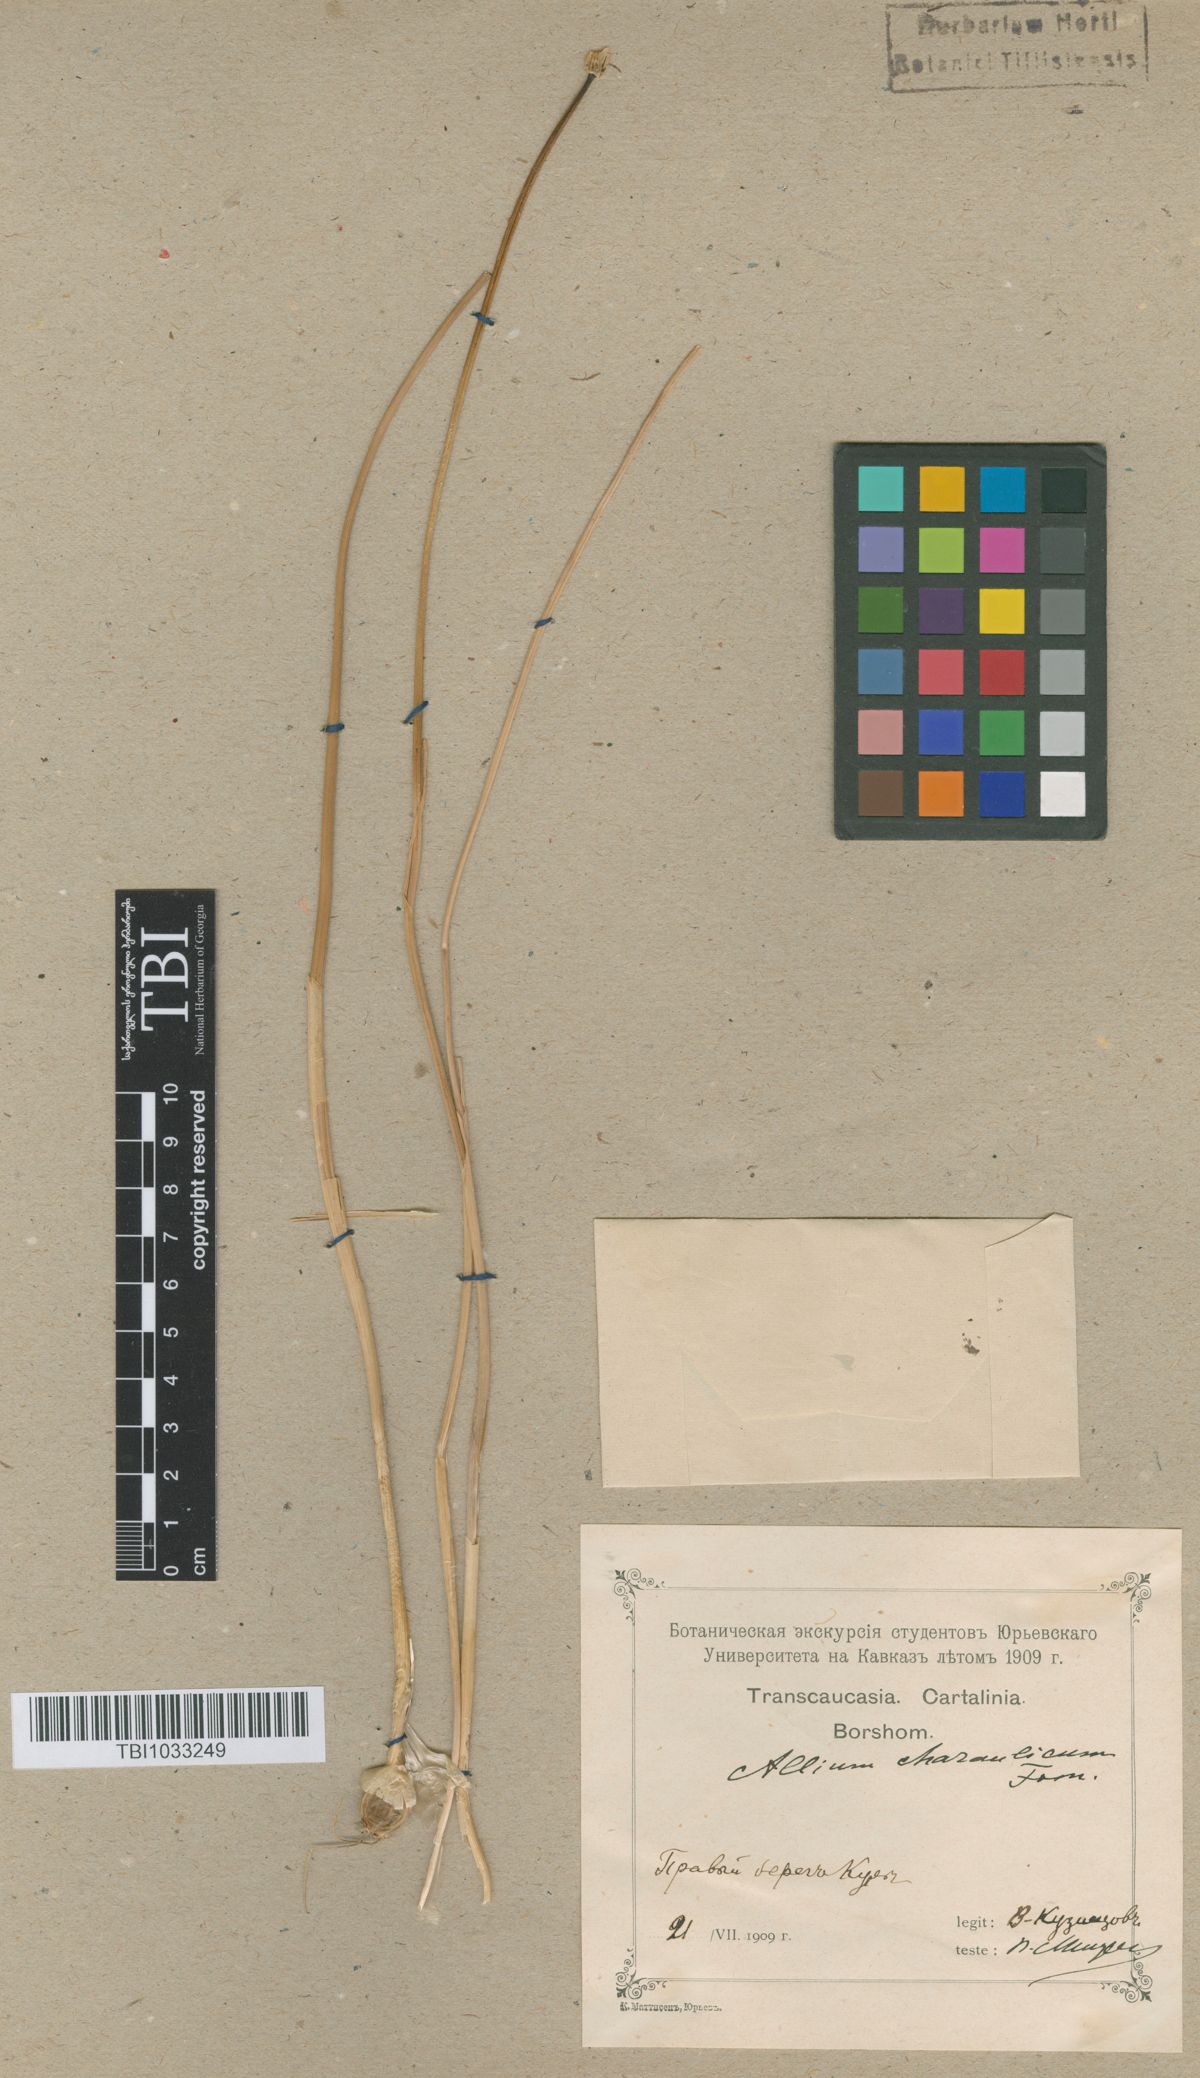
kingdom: Plantae
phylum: Tracheophyta
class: Liliopsida
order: Asparagales
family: Amaryllidaceae
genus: Allium
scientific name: Allium rupestre
